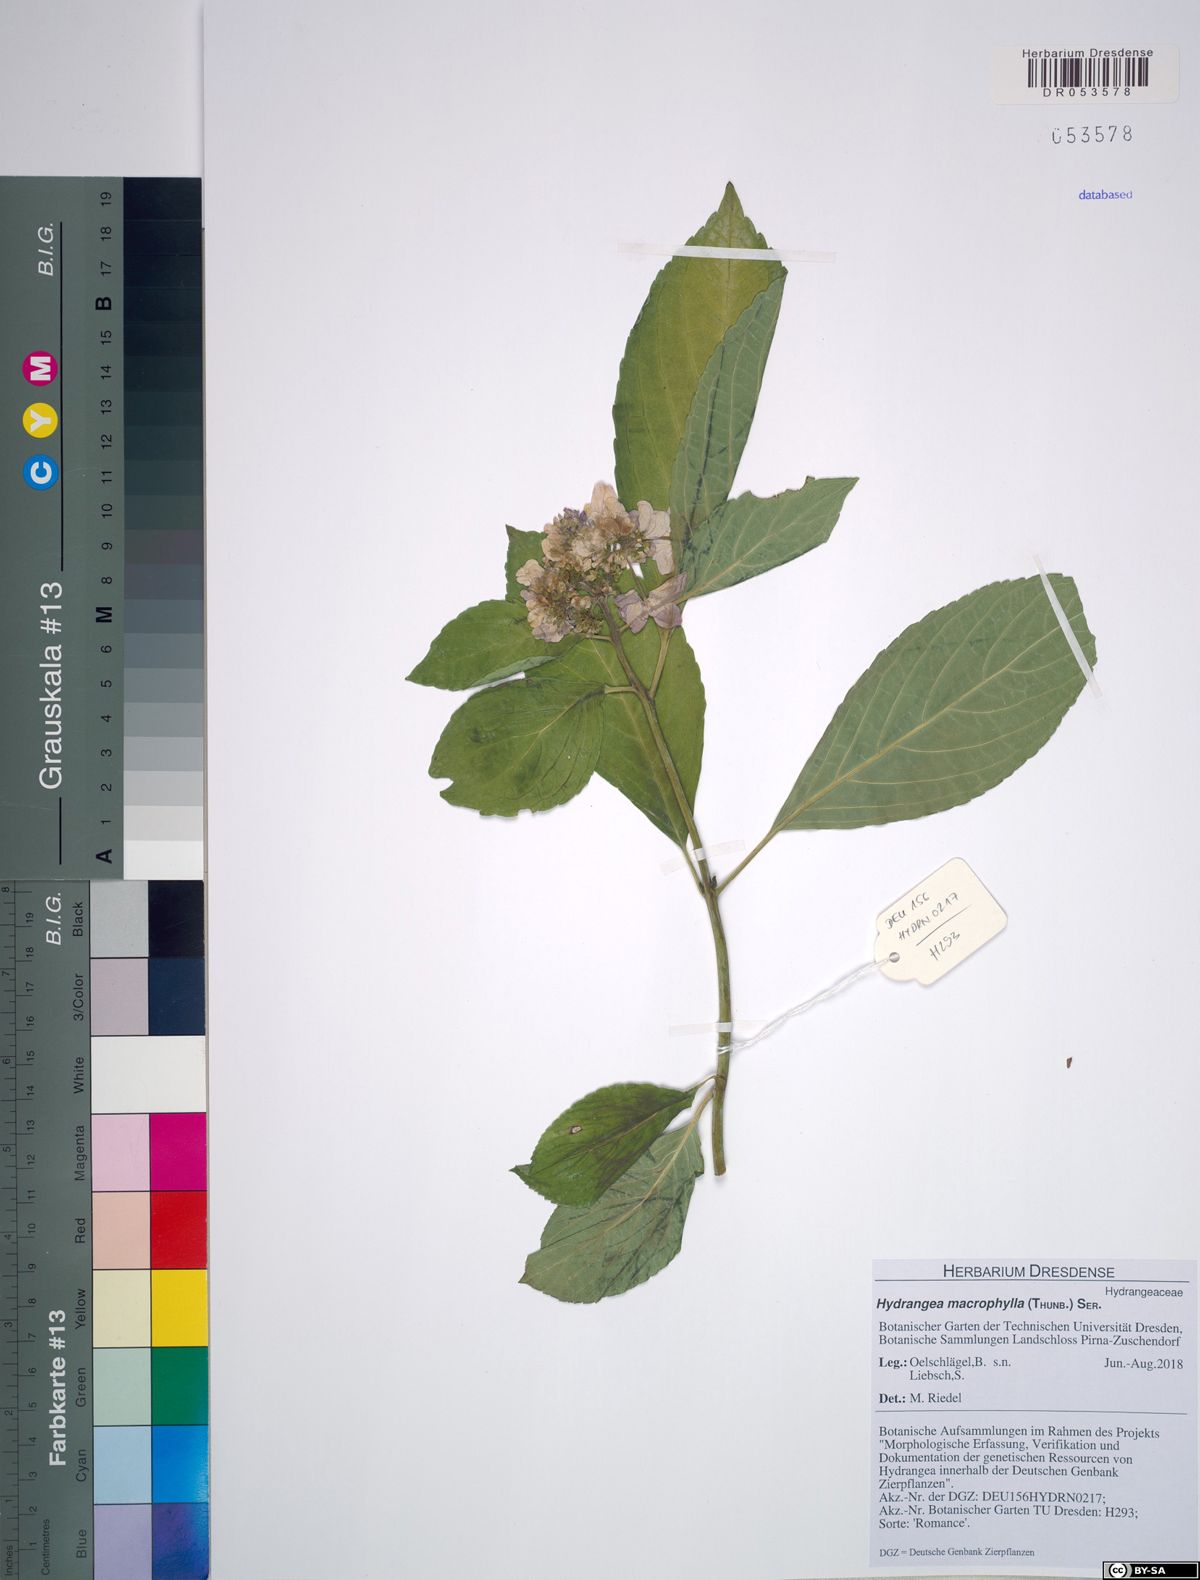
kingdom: Plantae
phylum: Tracheophyta
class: Magnoliopsida
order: Cornales
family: Hydrangeaceae
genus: Hydrangea
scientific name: Hydrangea macrophylla
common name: Hydrangea
